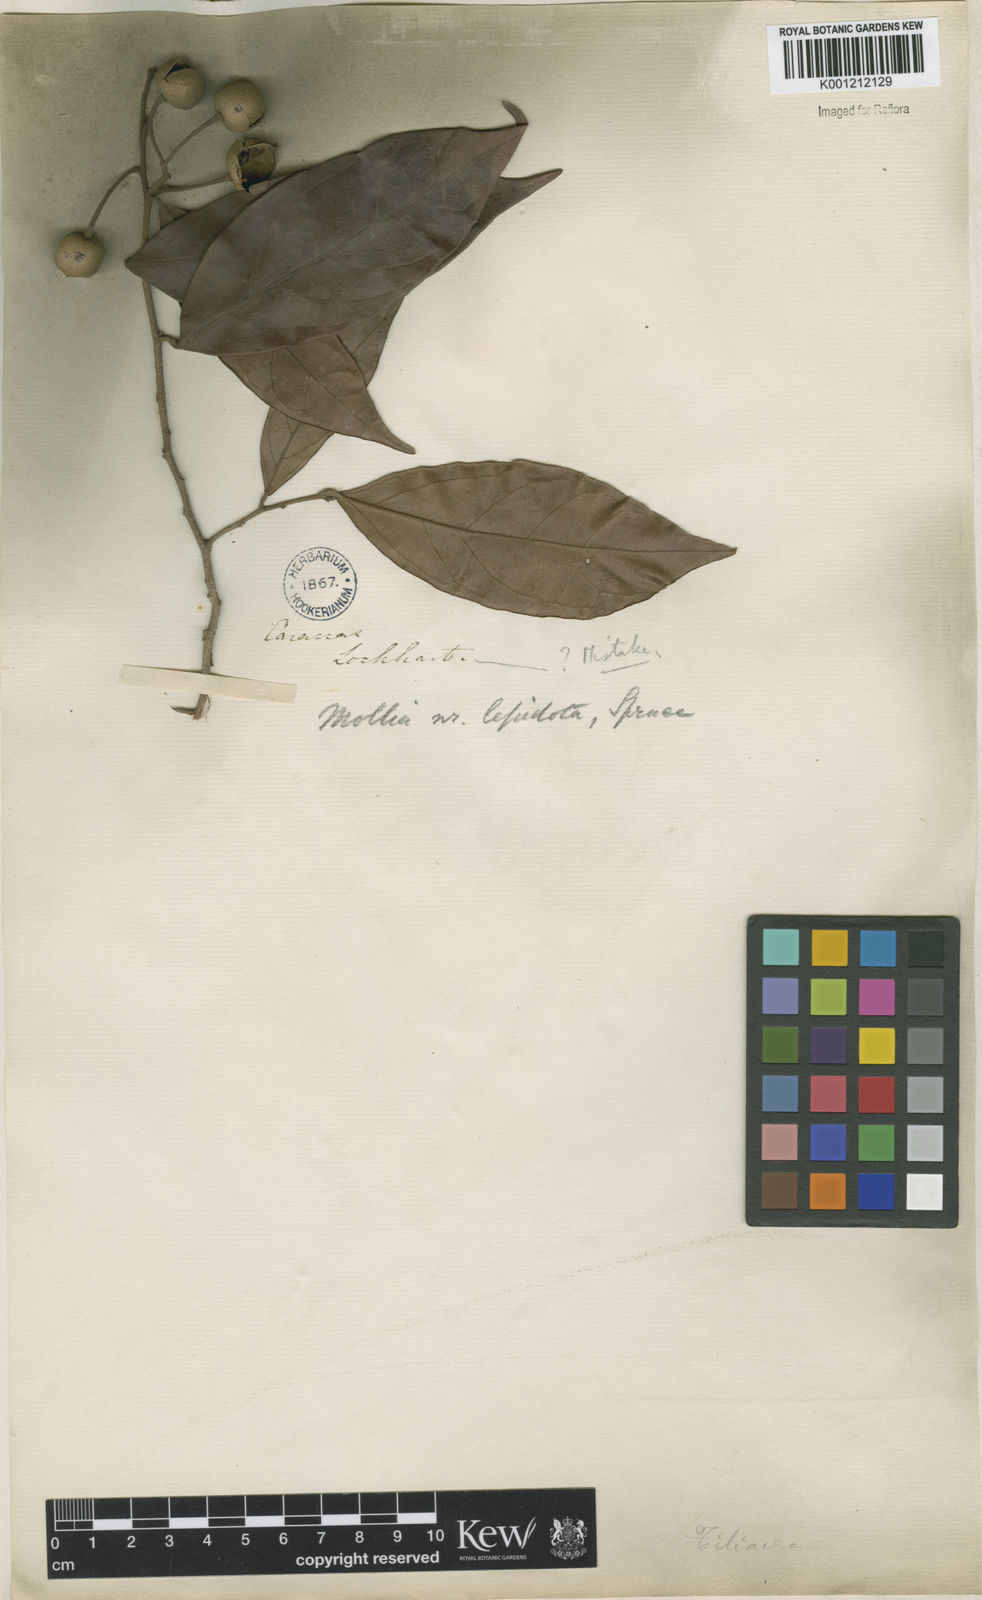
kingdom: Plantae
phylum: Tracheophyta
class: Magnoliopsida
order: Malvales
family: Malvaceae
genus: Mollia
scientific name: Mollia lepidota
